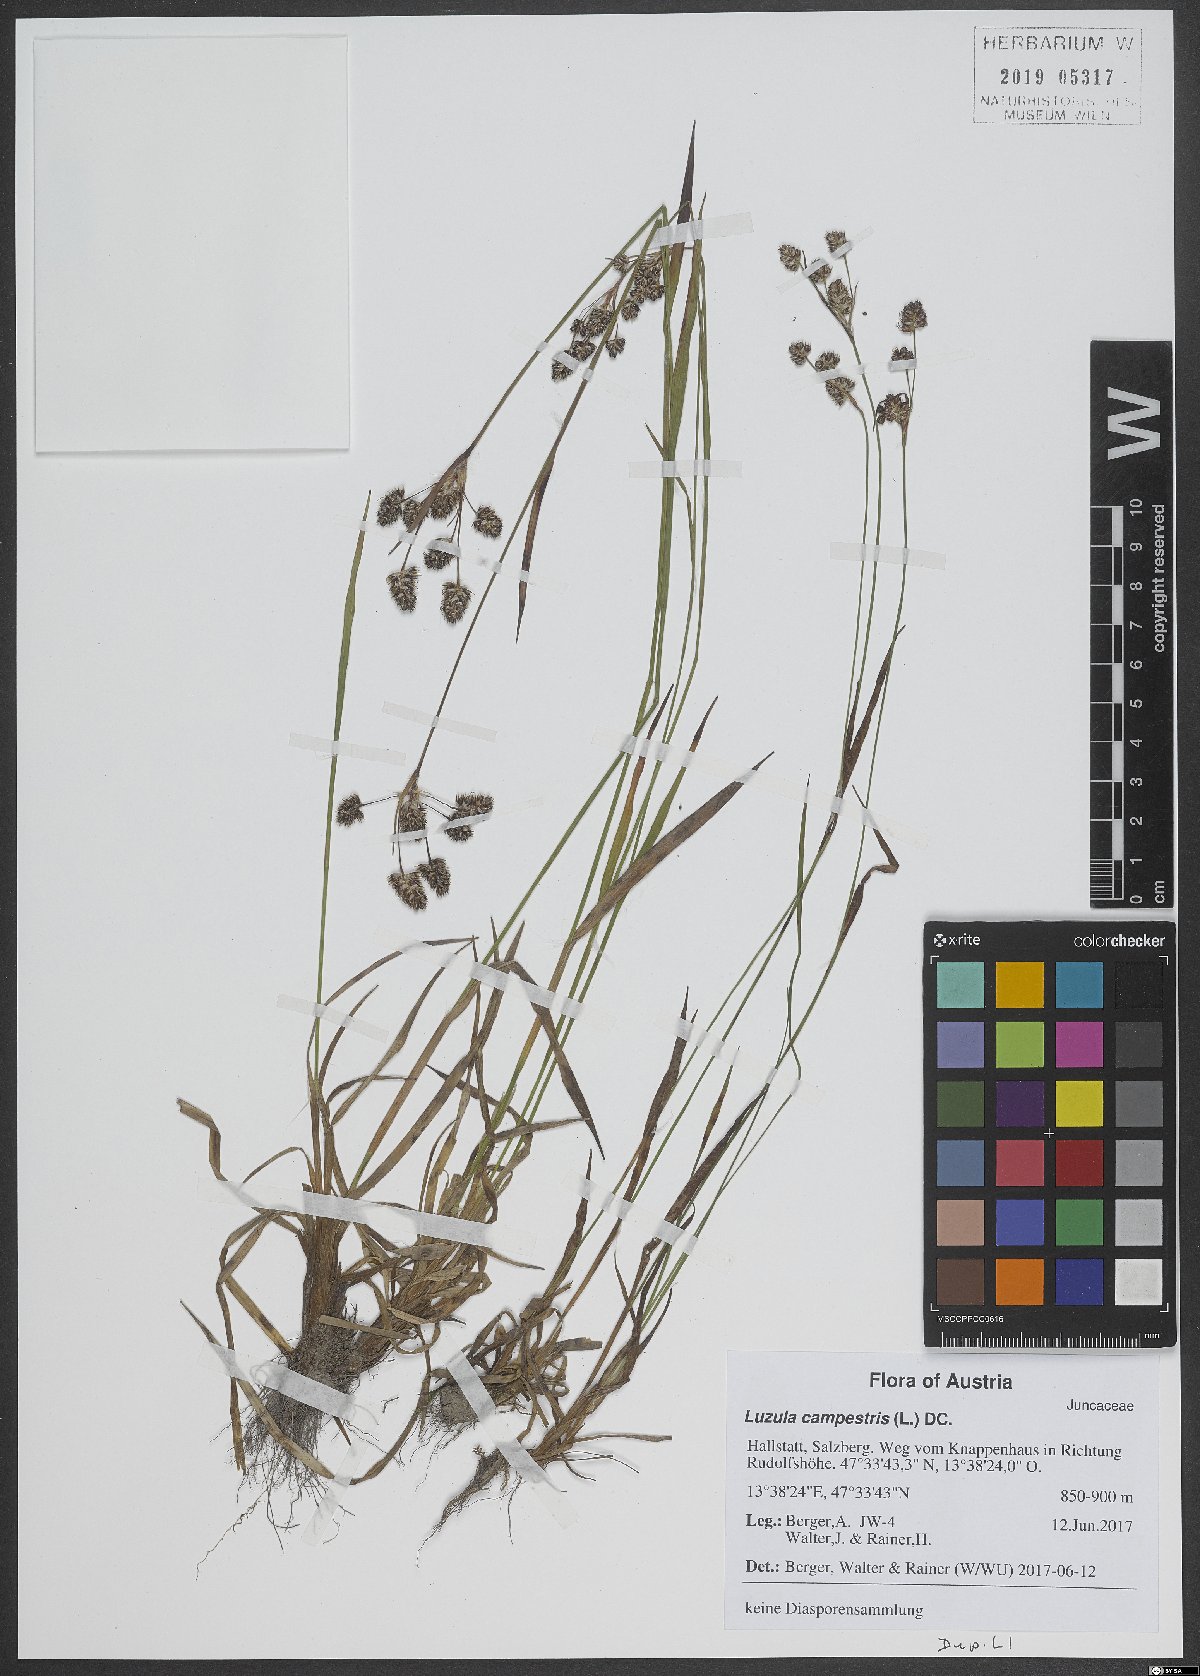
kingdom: Plantae
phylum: Tracheophyta
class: Liliopsida
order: Poales
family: Juncaceae
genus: Luzula
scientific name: Luzula campestris
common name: Field wood-rush
